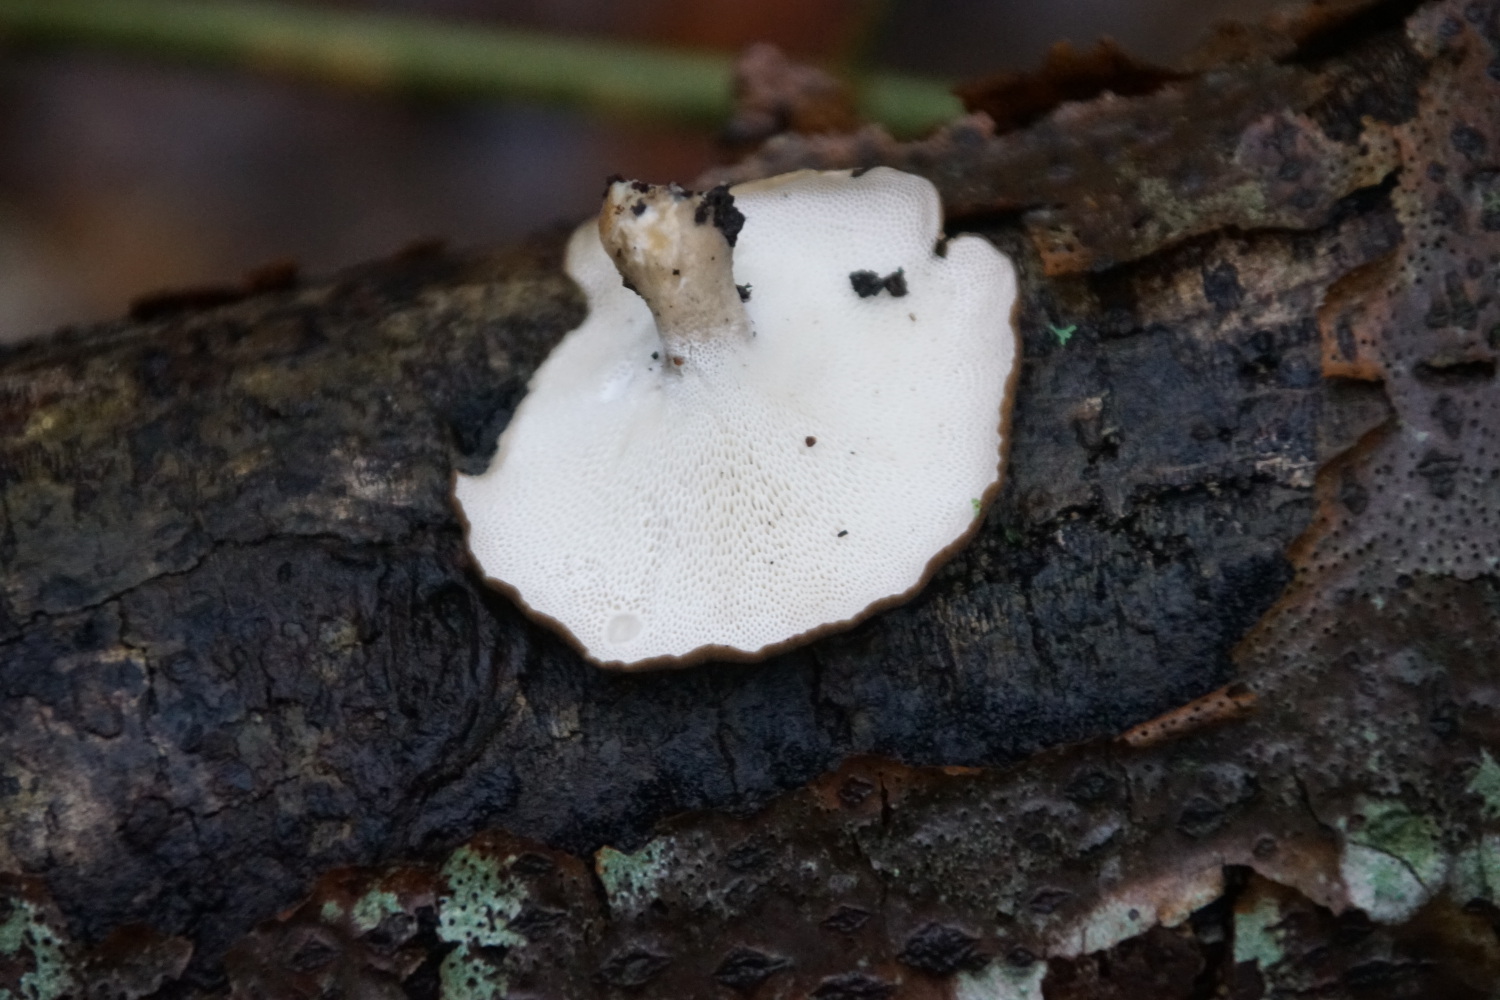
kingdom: Fungi
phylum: Basidiomycota
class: Agaricomycetes
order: Polyporales
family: Polyporaceae
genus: Lentinus
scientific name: Lentinus brumalis
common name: vinter-stilkporesvamp
